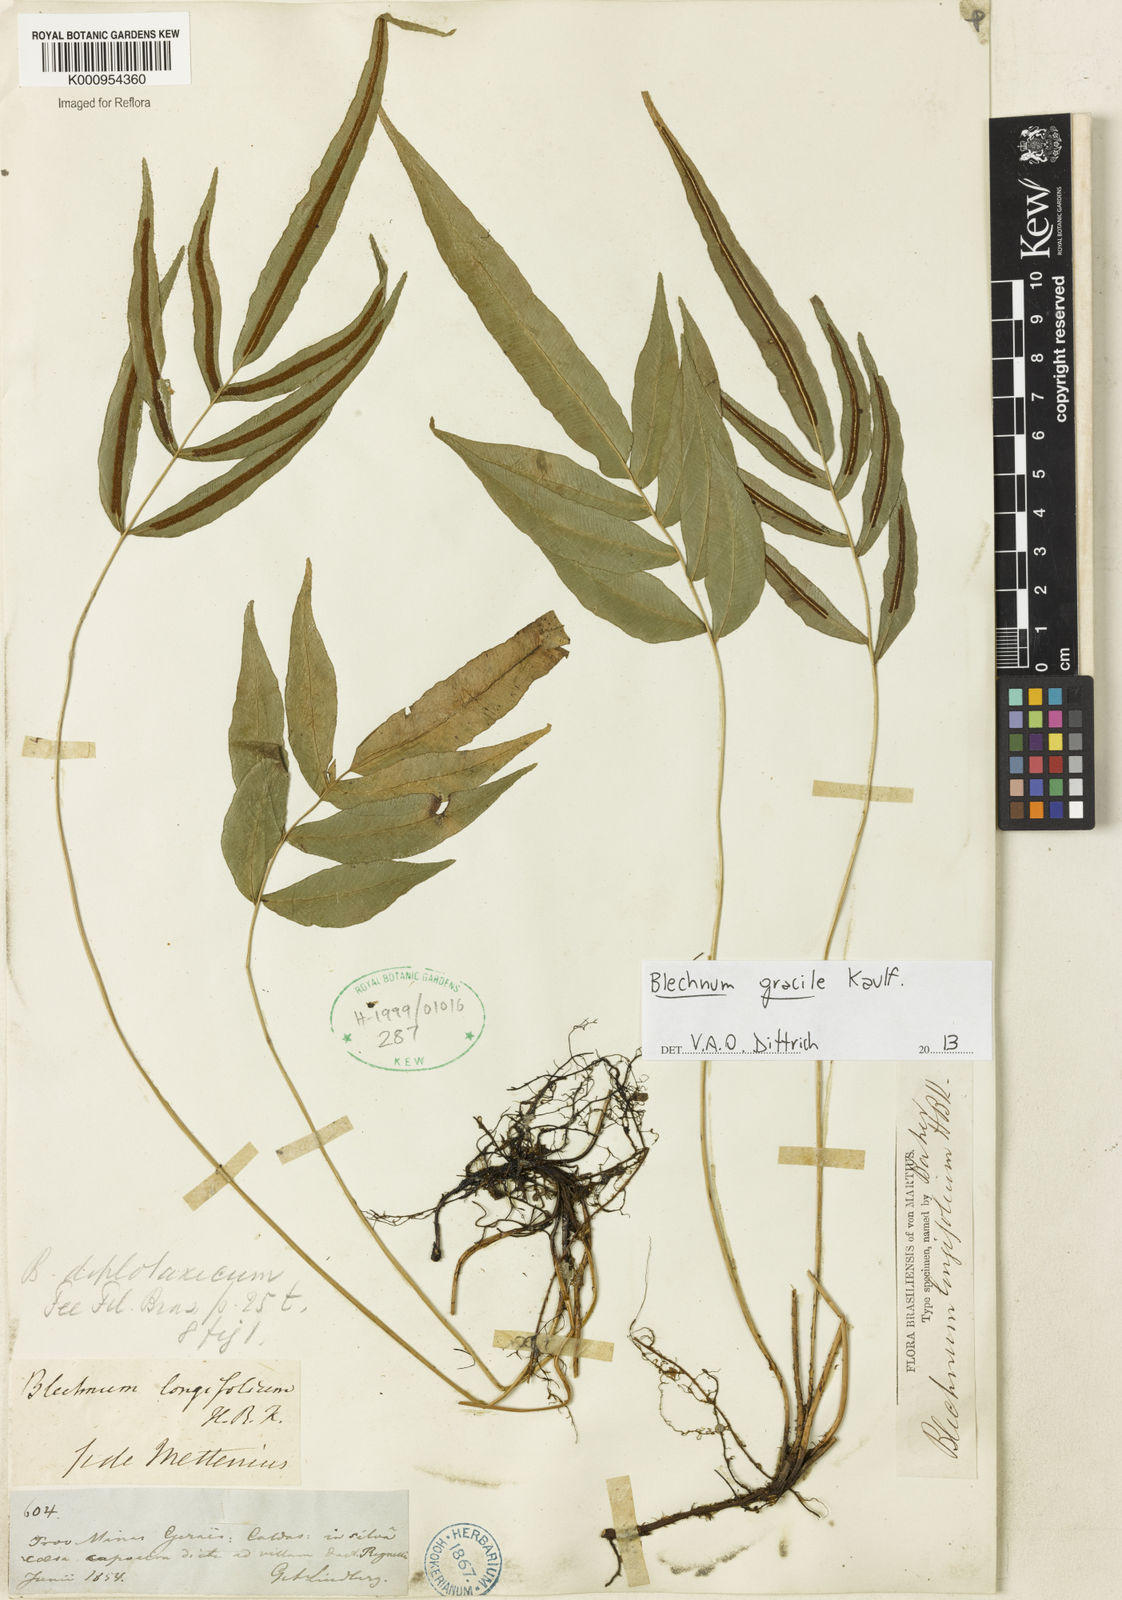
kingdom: Plantae
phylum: Tracheophyta
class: Polypodiopsida
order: Polypodiales
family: Blechnaceae
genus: Blechnum
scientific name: Blechnum gracile
